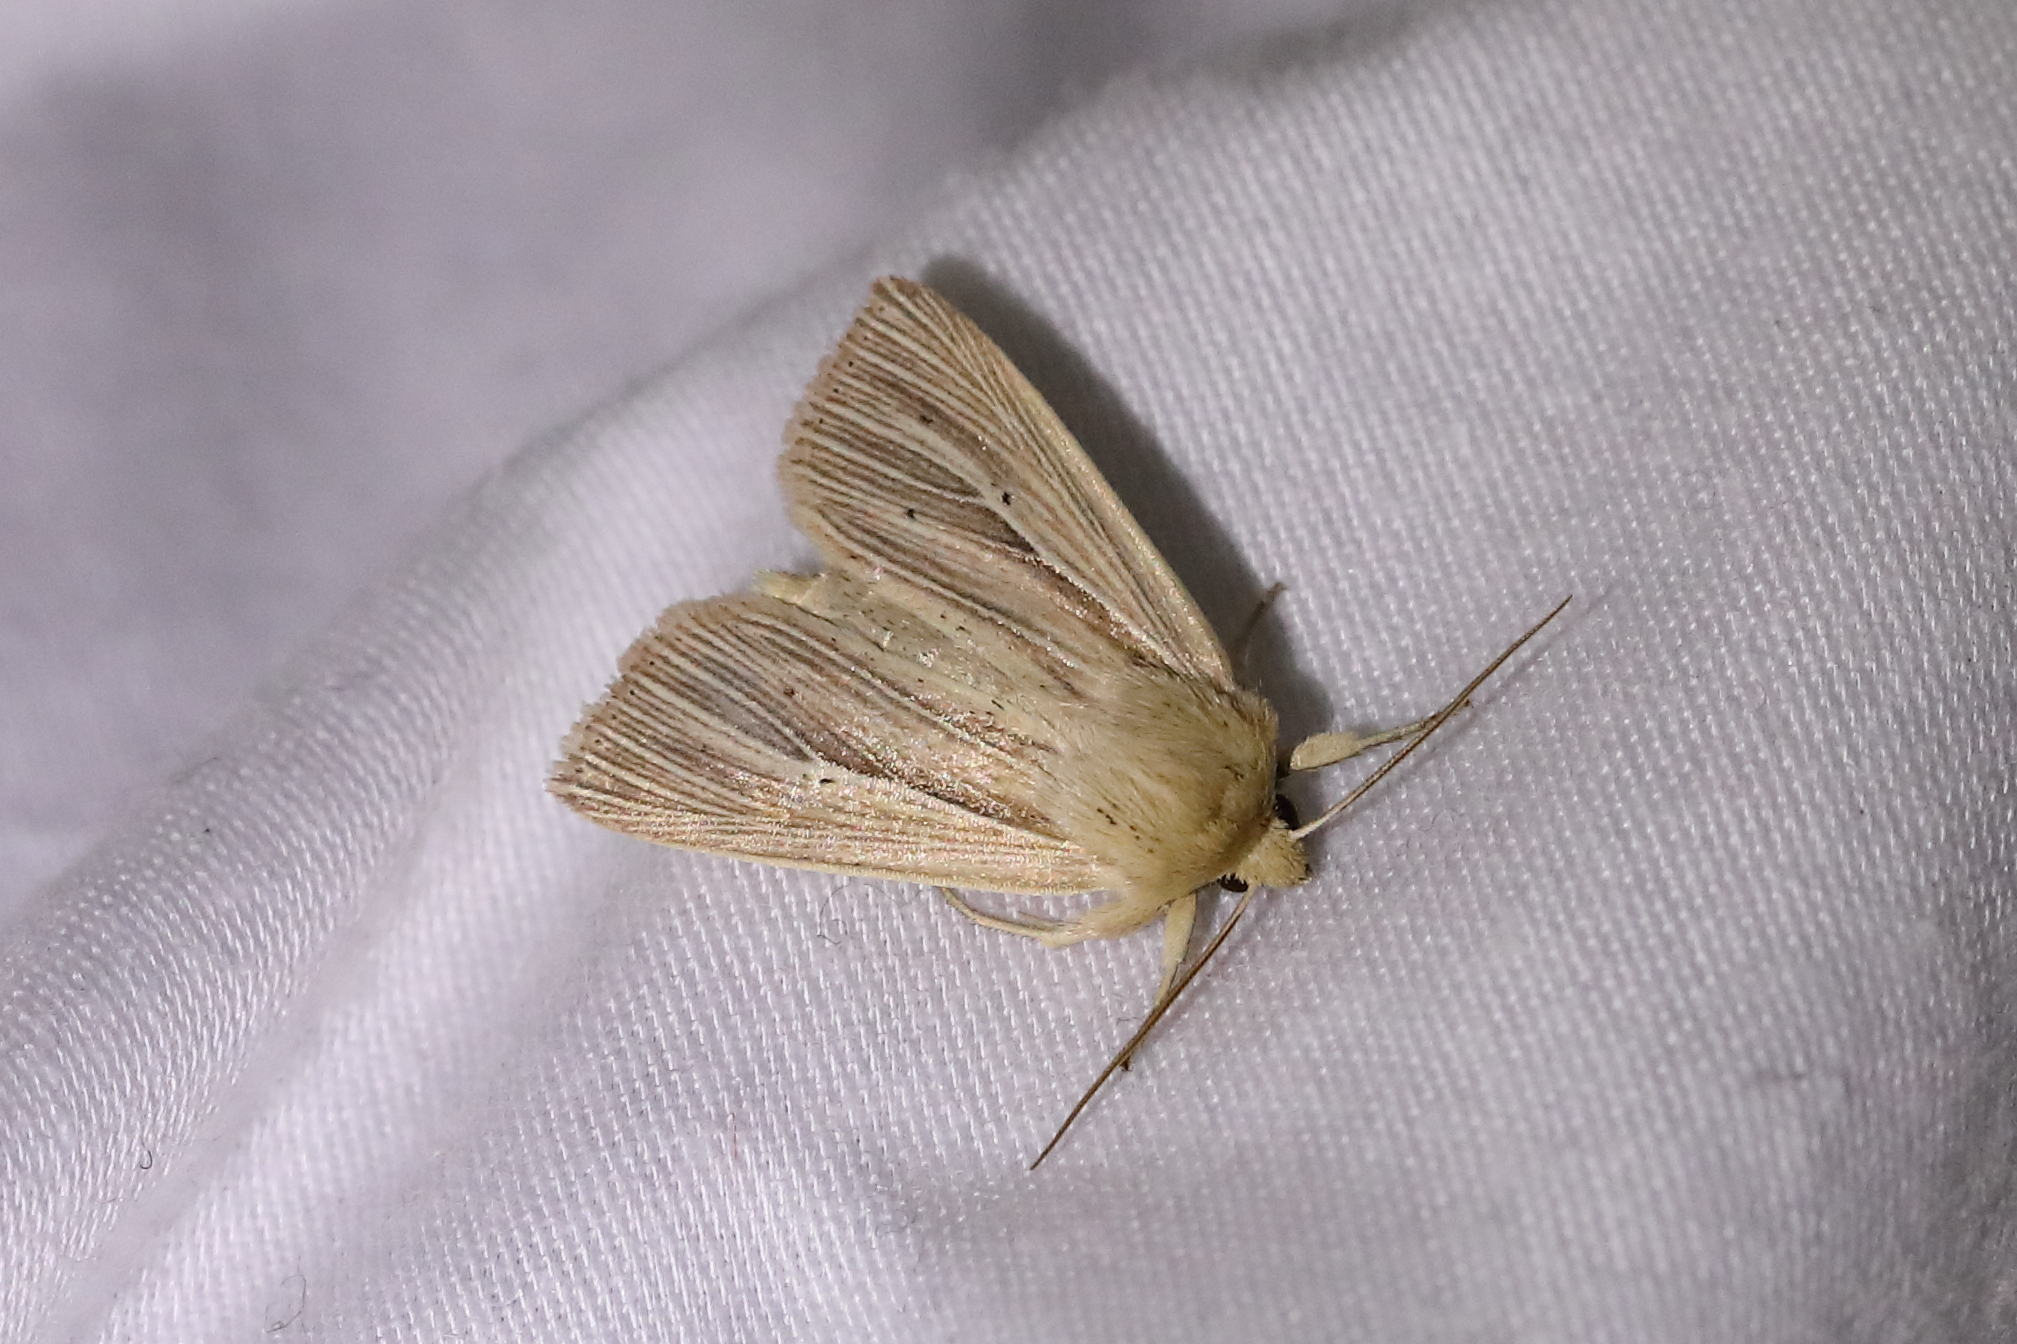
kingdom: Animalia
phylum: Arthropoda
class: Insecta
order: Lepidoptera
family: Noctuidae
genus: Mythimna
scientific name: Mythimna impura
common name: Smoky wainscot
